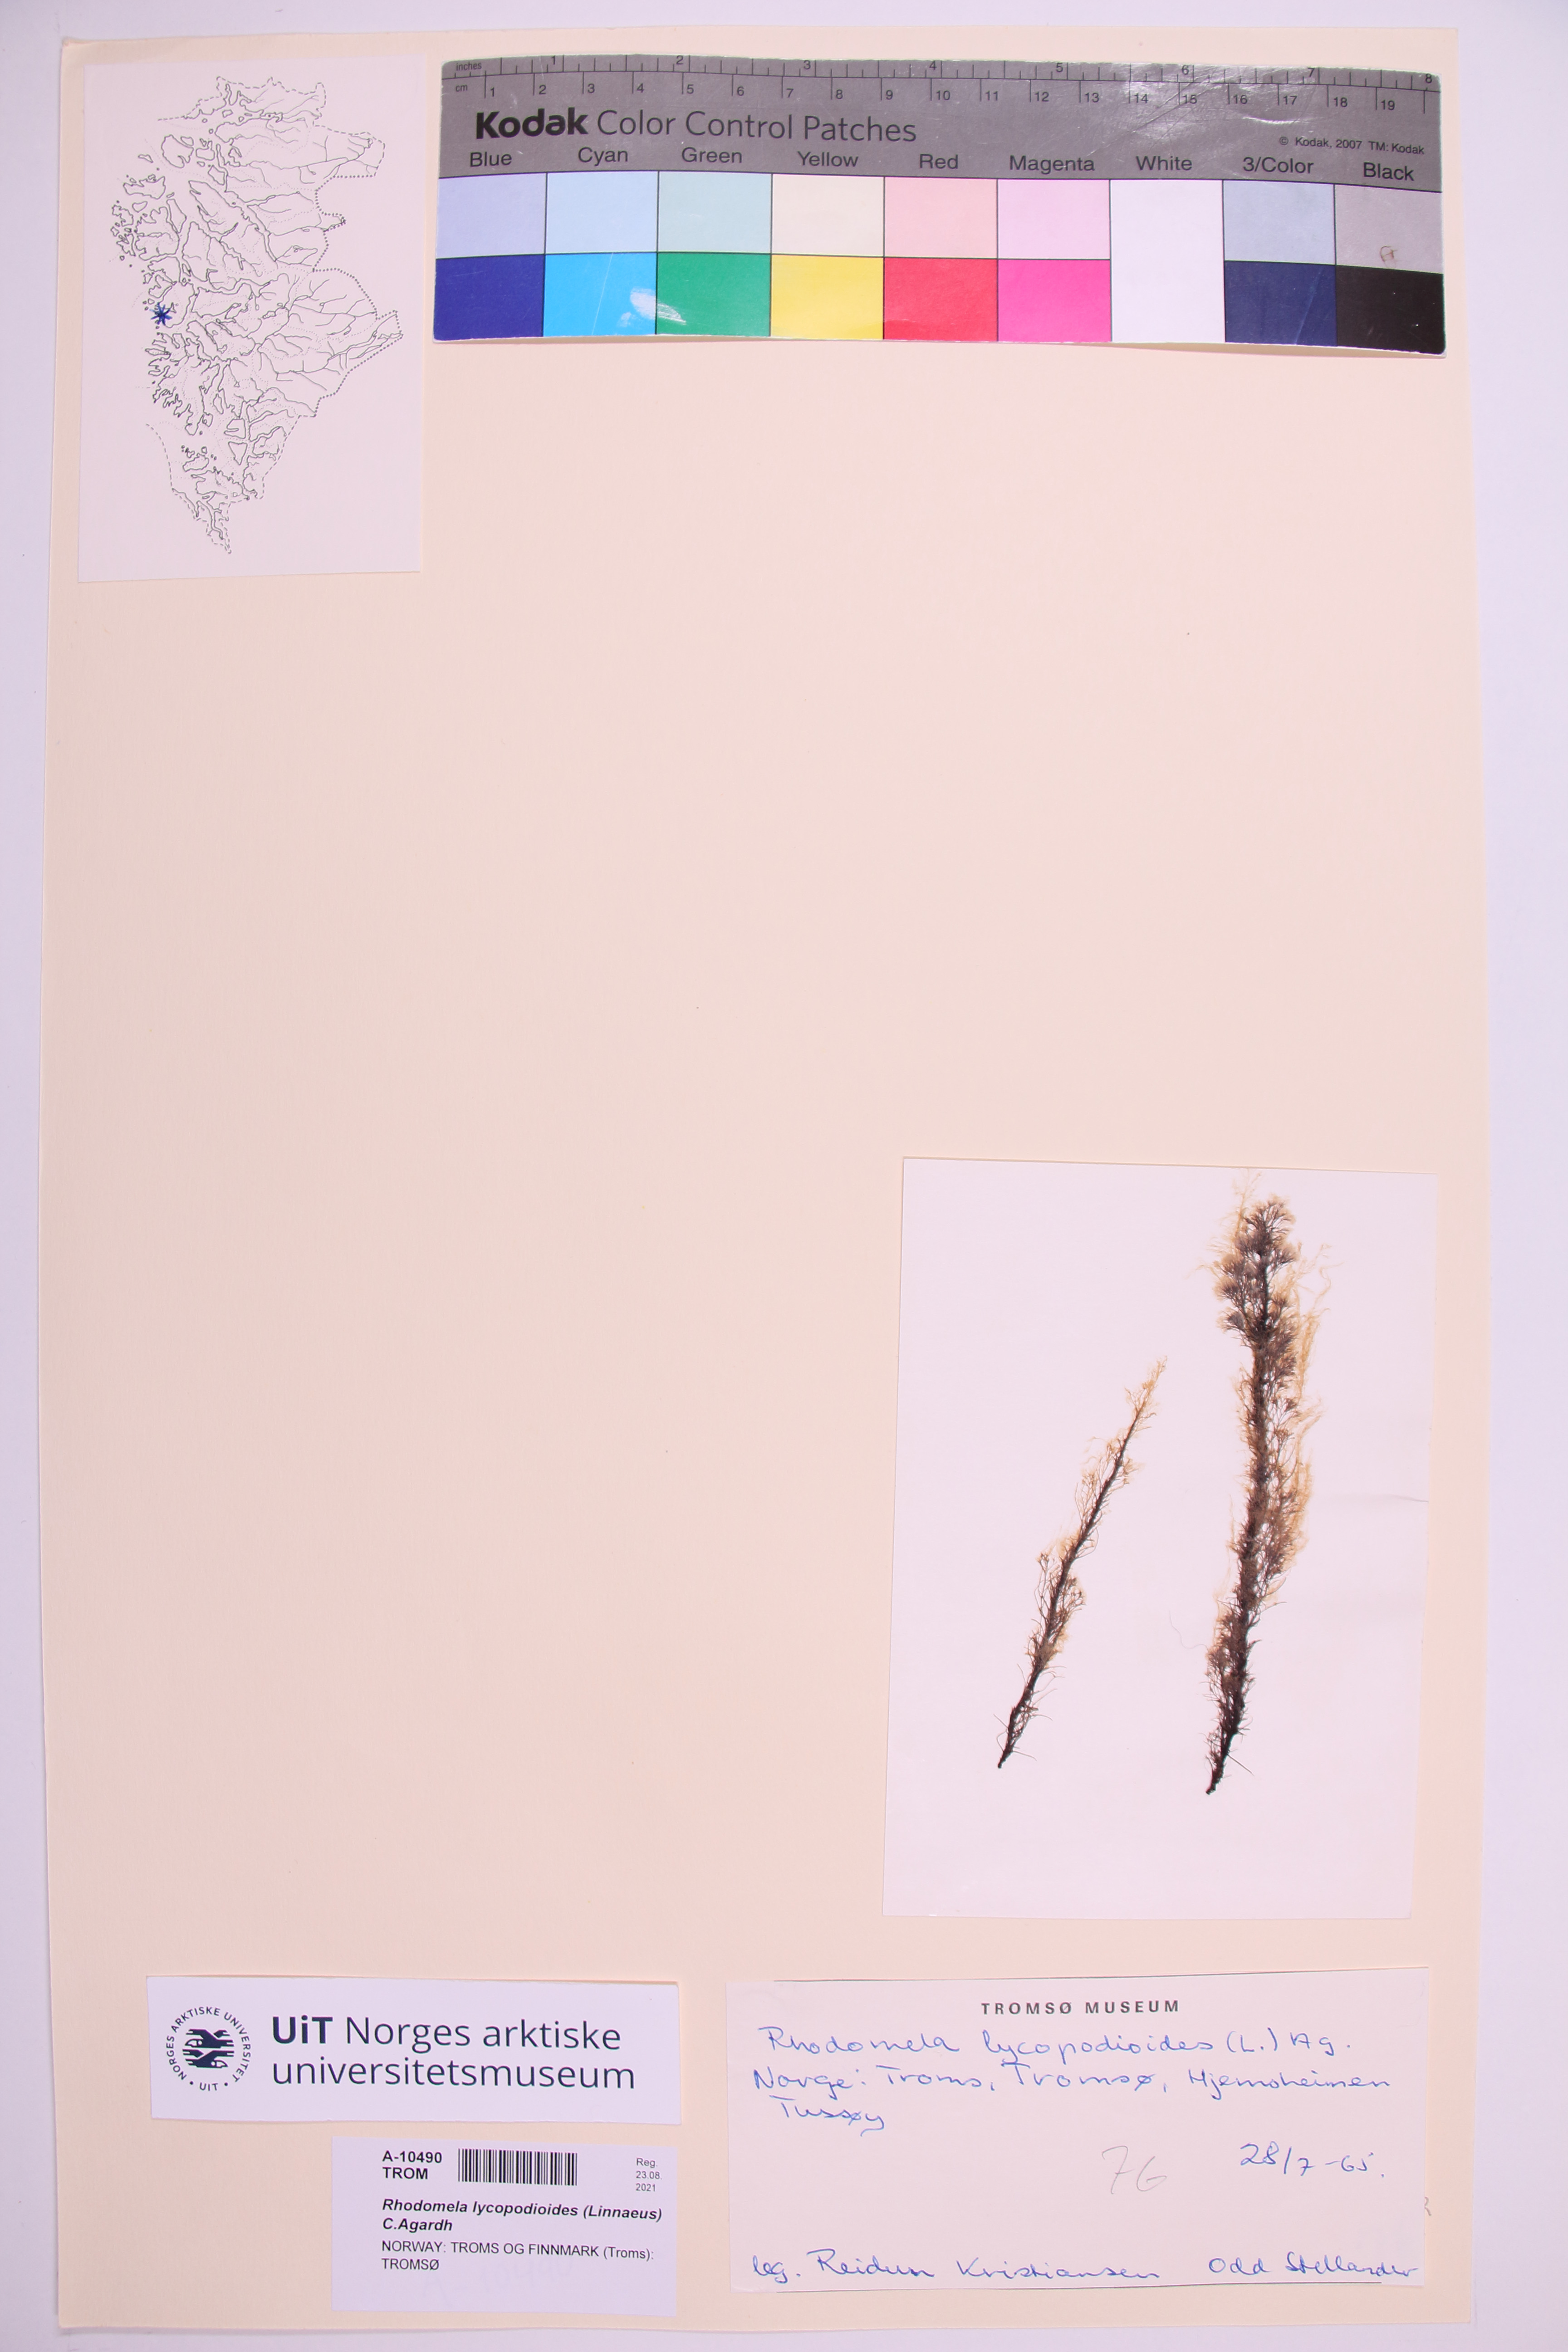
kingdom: Plantae
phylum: Rhodophyta
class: Florideophyceae
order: Ceramiales
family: Rhodomelaceae
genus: Rhodomela
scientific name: Rhodomela lycopodioides
